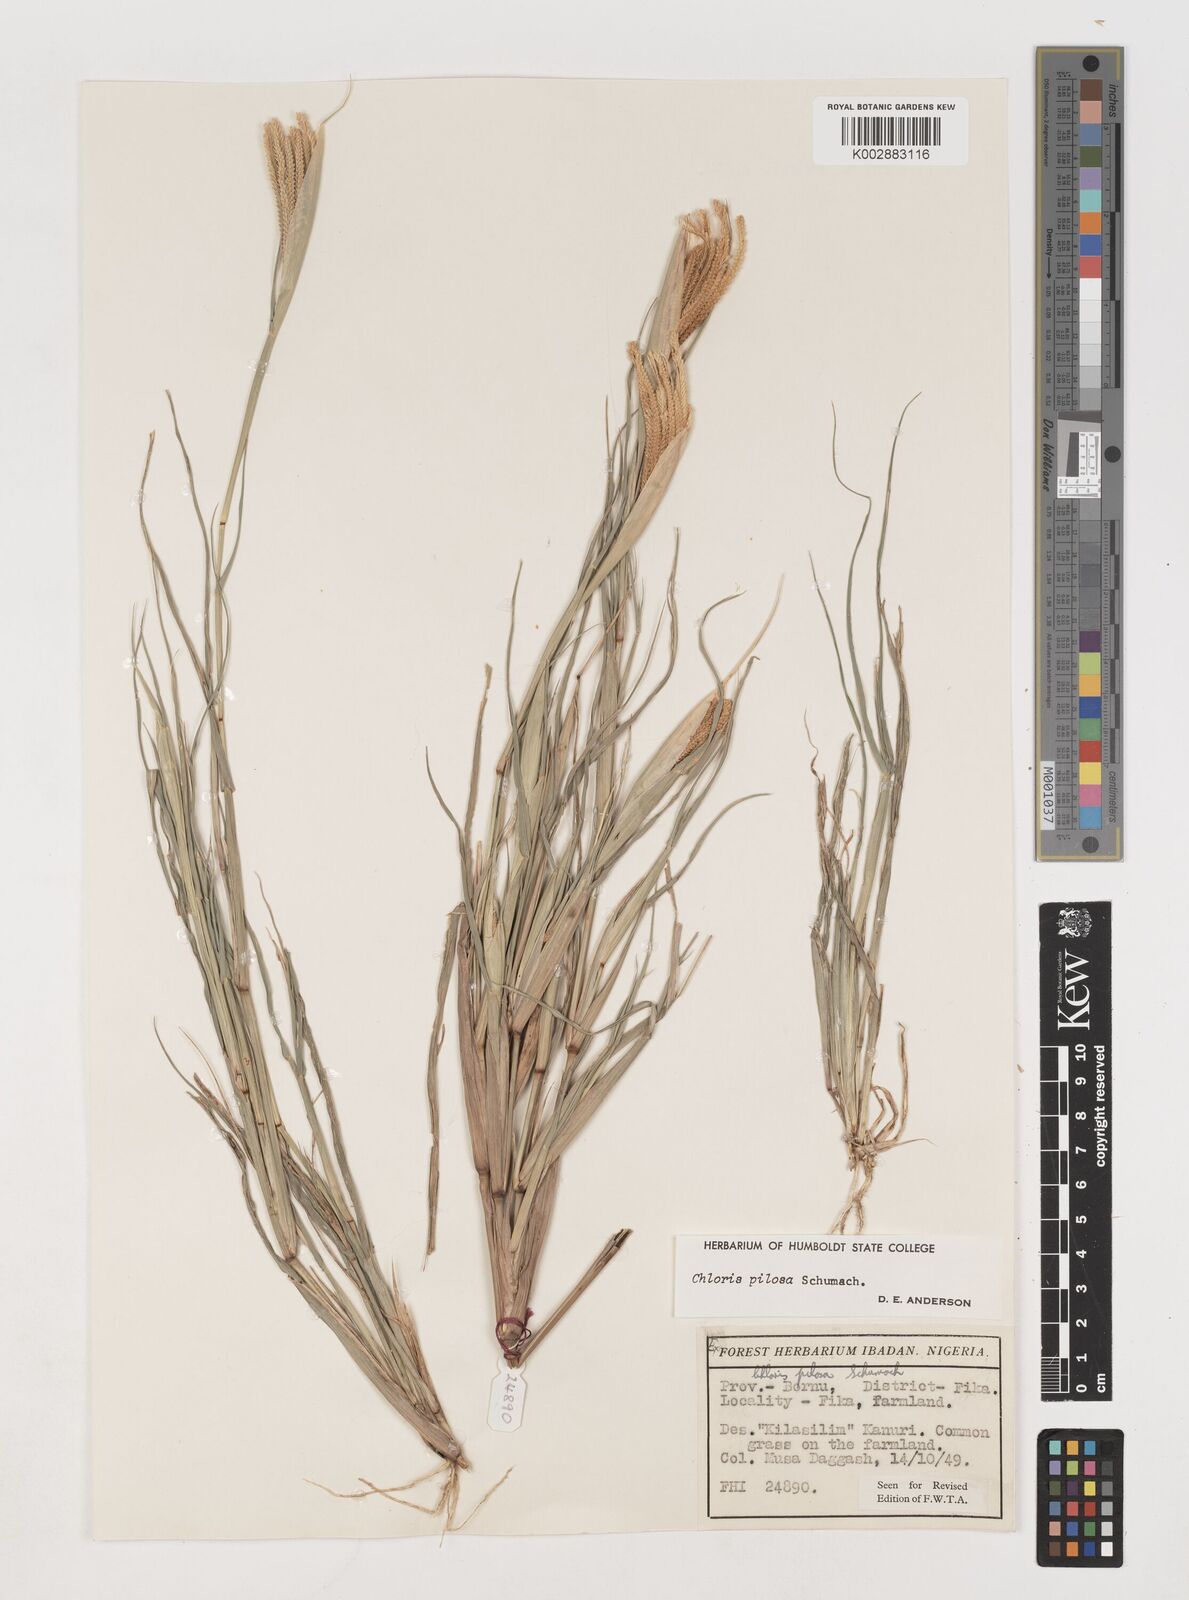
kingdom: Plantae
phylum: Tracheophyta
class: Liliopsida
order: Poales
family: Poaceae
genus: Chloris
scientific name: Chloris pilosa
